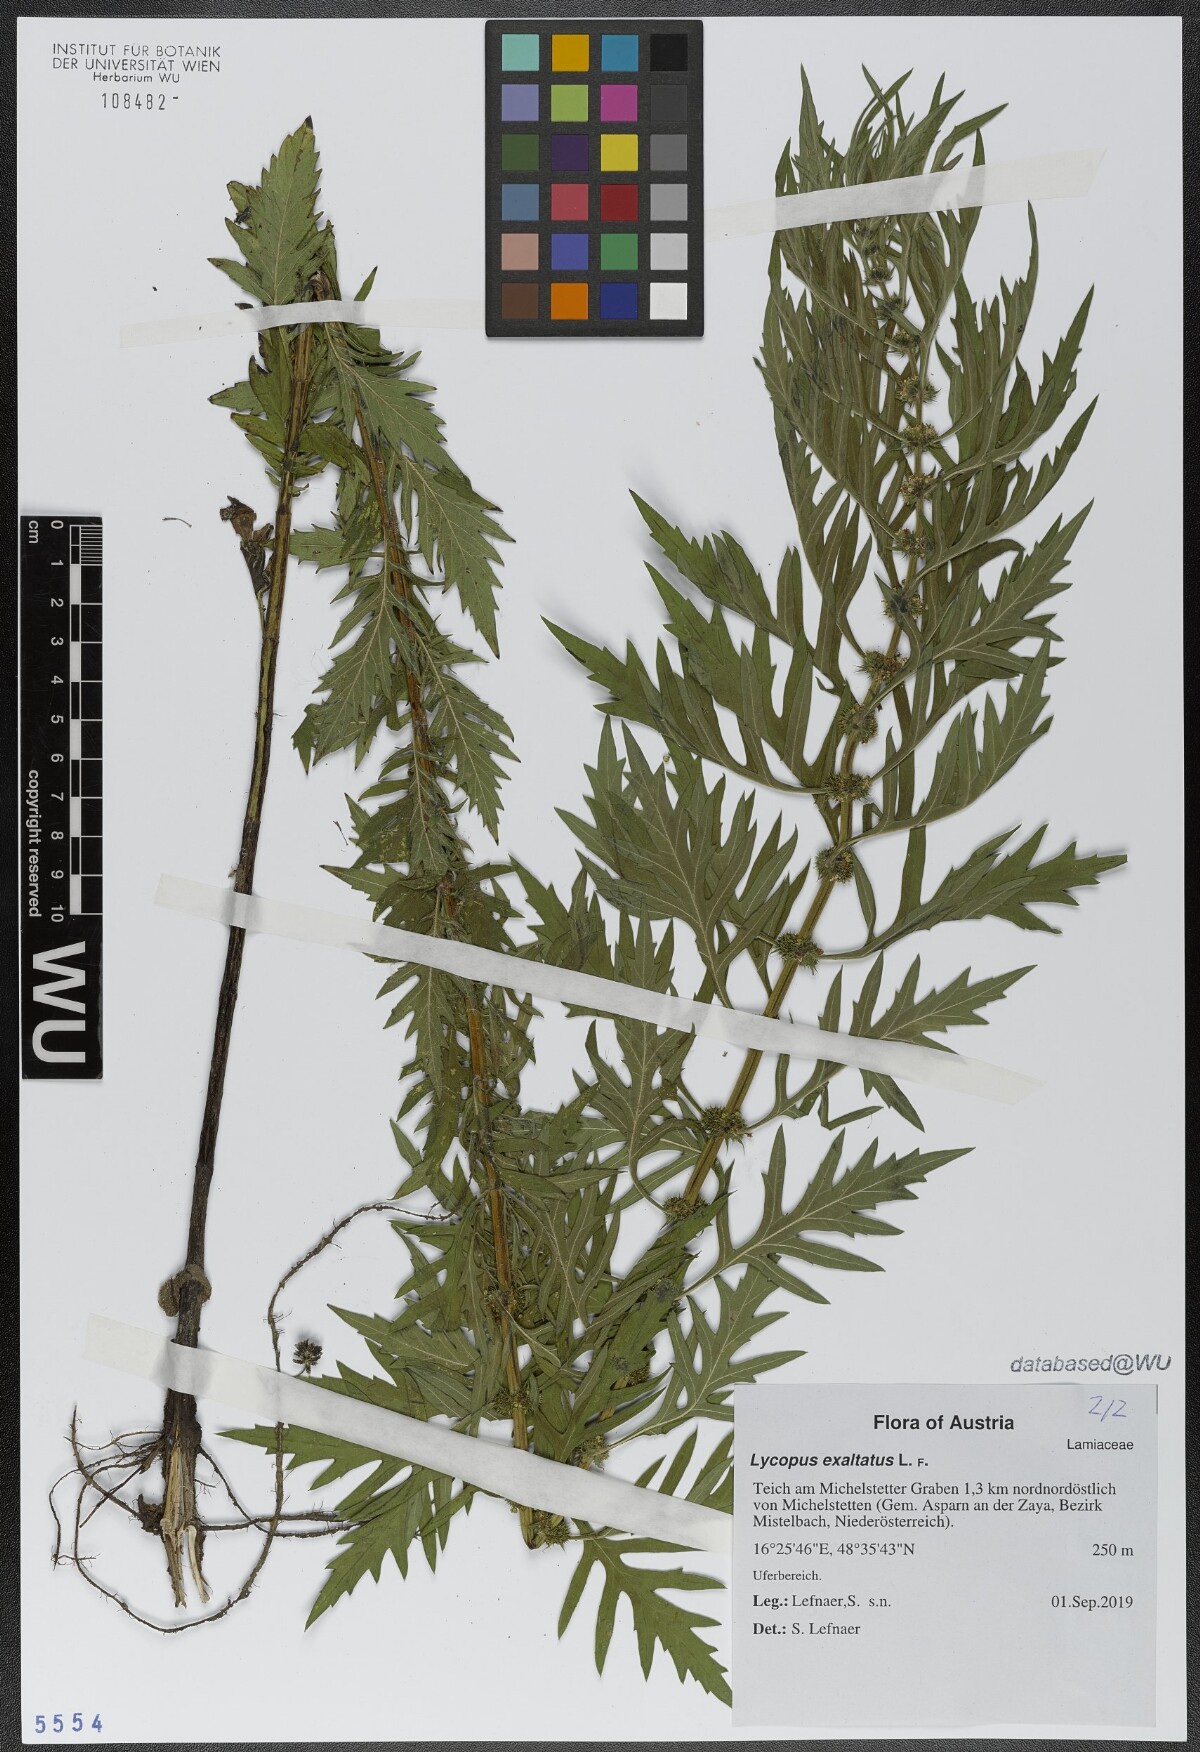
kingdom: Plantae
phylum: Tracheophyta
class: Magnoliopsida
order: Lamiales
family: Lamiaceae
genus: Lycopus
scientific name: Lycopus exaltatus
